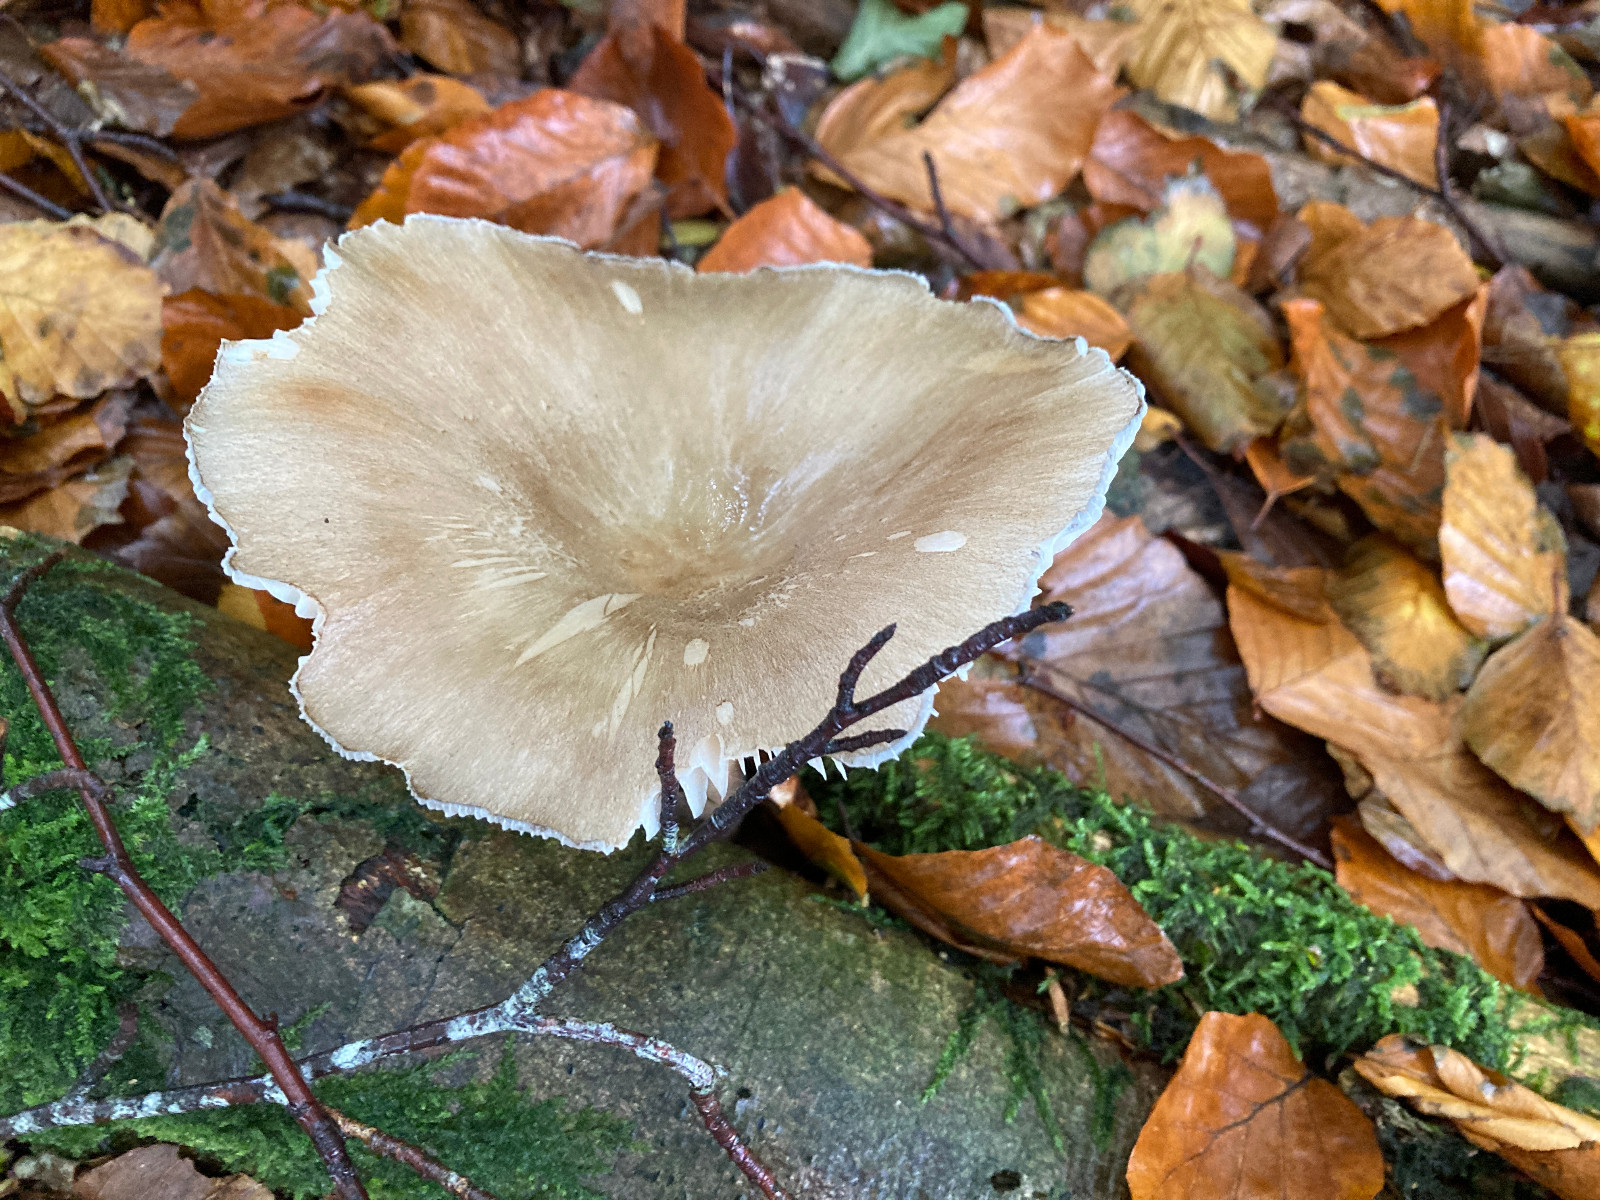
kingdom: Fungi
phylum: Basidiomycota
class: Agaricomycetes
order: Agaricales
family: Tricholomataceae
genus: Megacollybia
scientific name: Megacollybia platyphylla
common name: bredbladet væbnerhat
